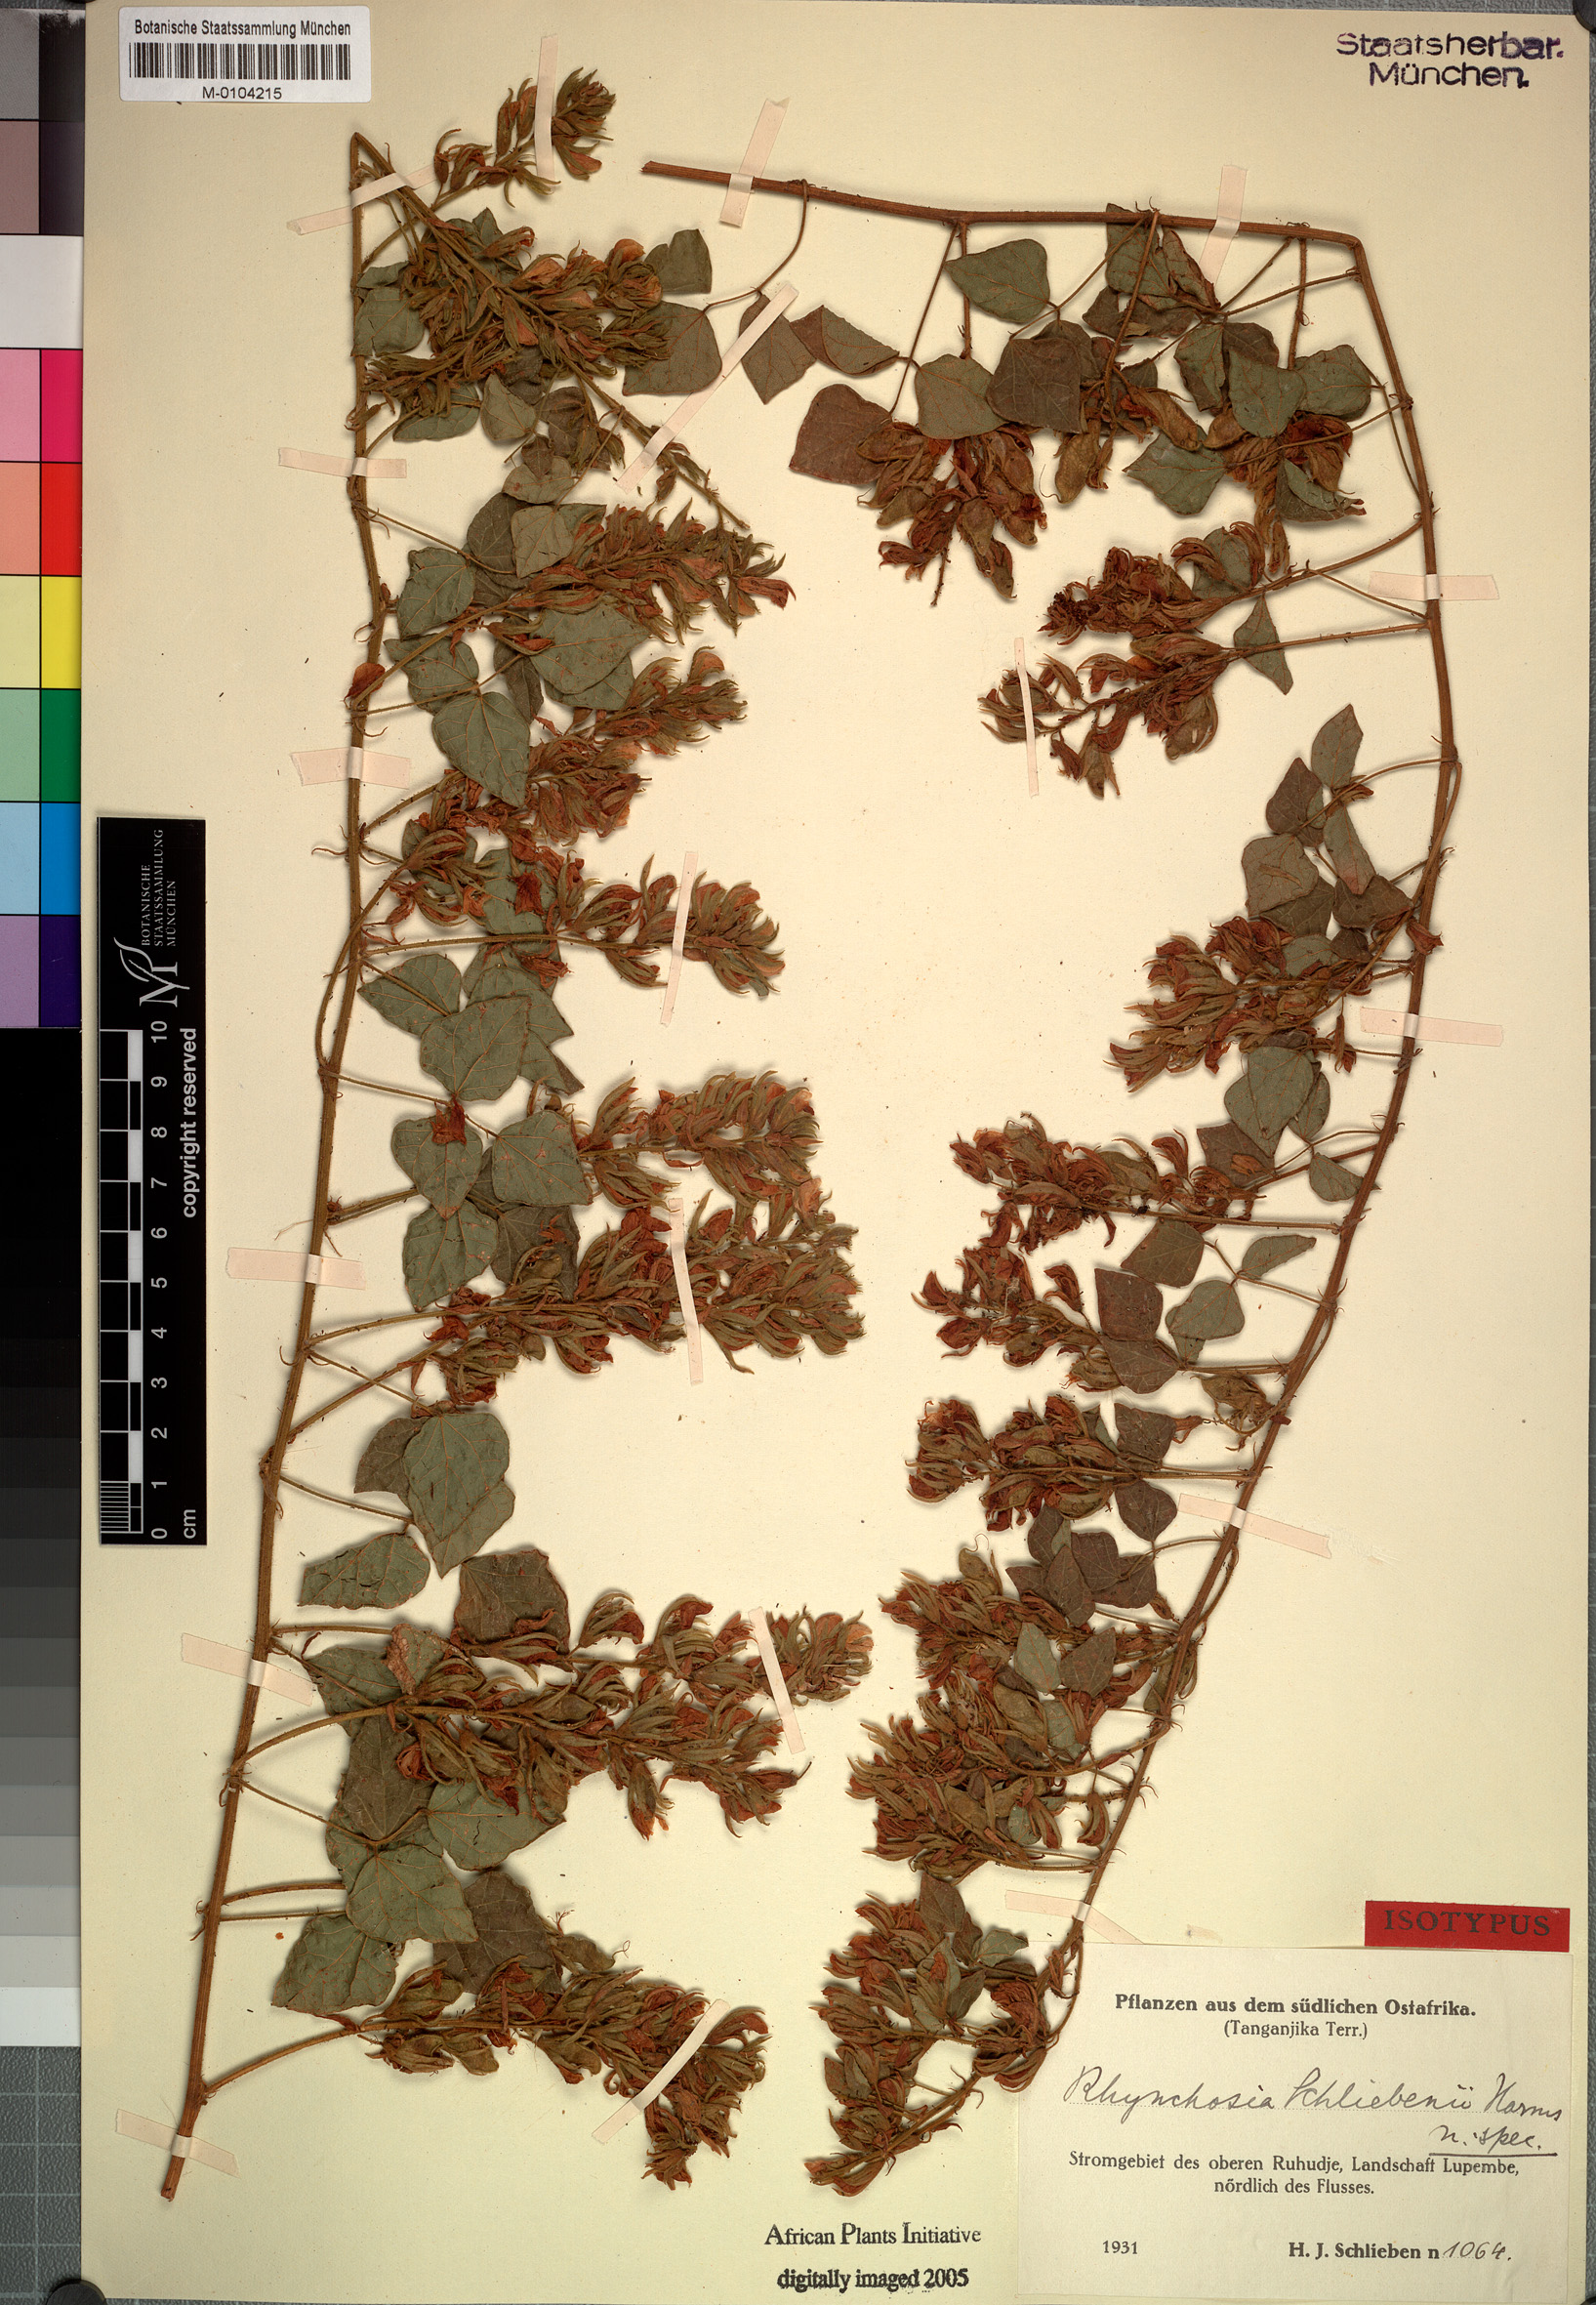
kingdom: Plantae
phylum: Tracheophyta
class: Magnoliopsida
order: Fabales
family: Fabaceae
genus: Rhynchosia
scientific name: Rhynchosia procurrens
